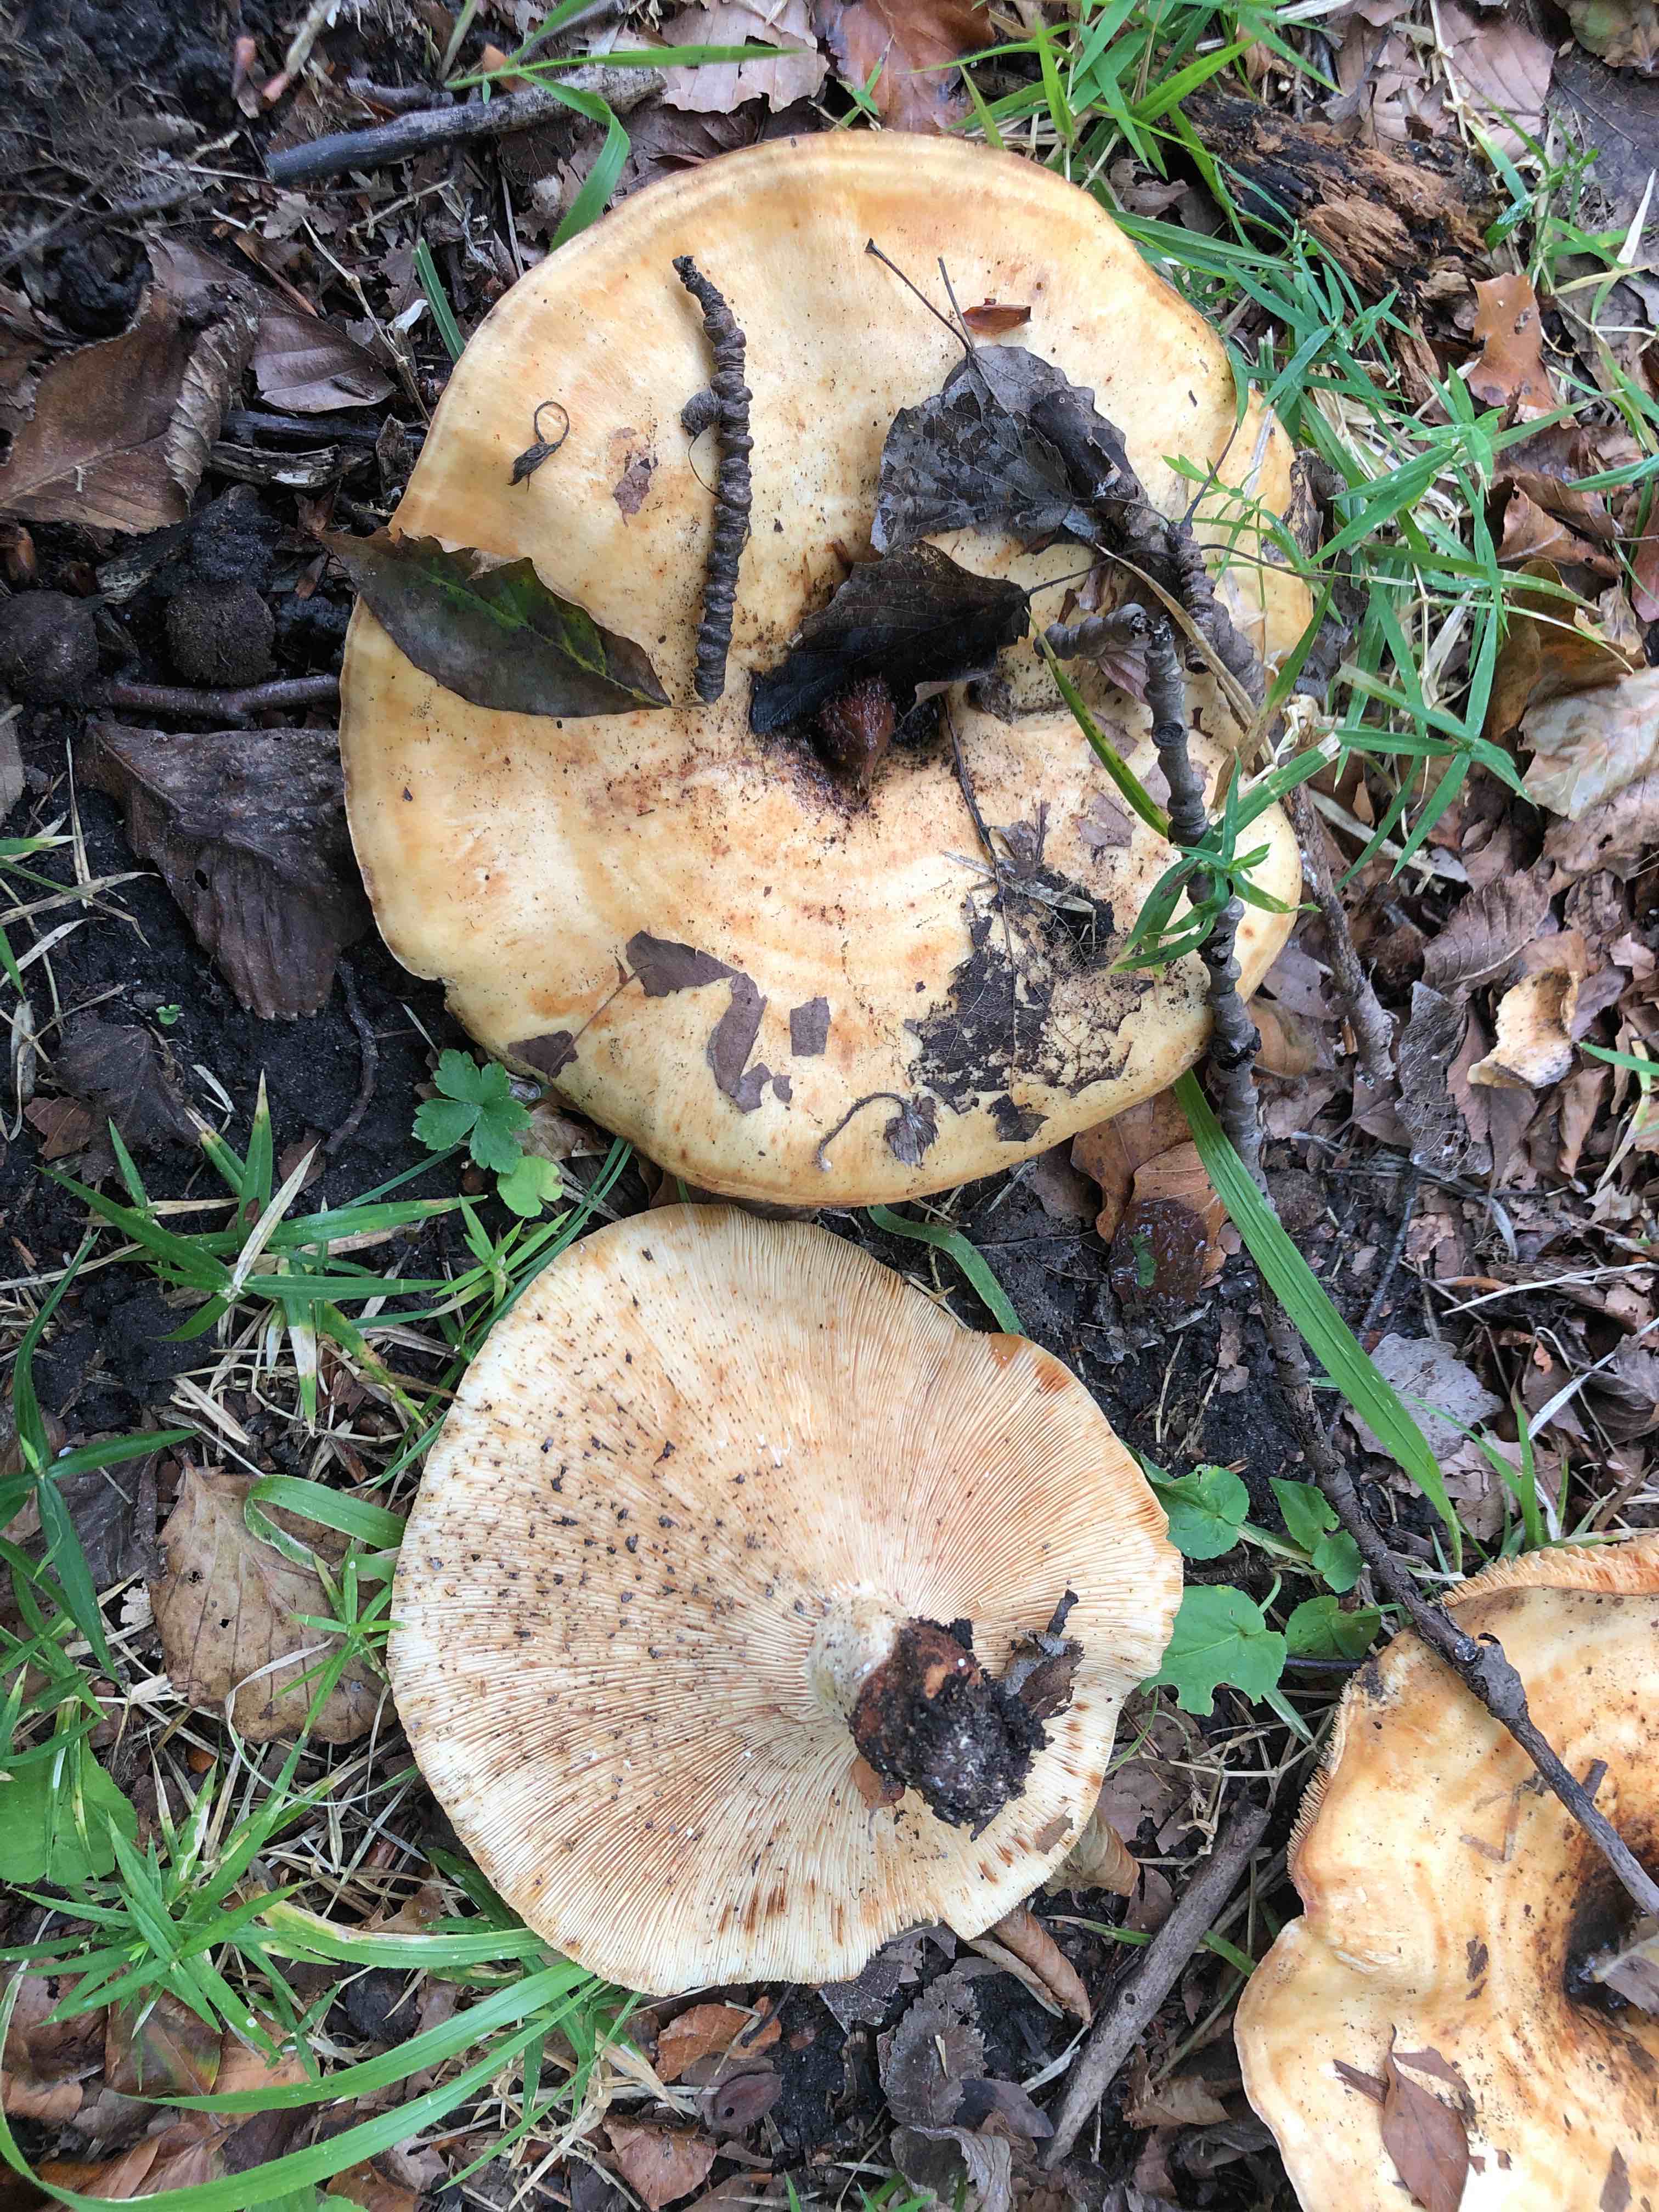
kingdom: Fungi
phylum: Basidiomycota
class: Agaricomycetes
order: Russulales
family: Russulaceae
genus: Lactarius
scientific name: Lactarius evosmus
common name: bæltet mælkehat
